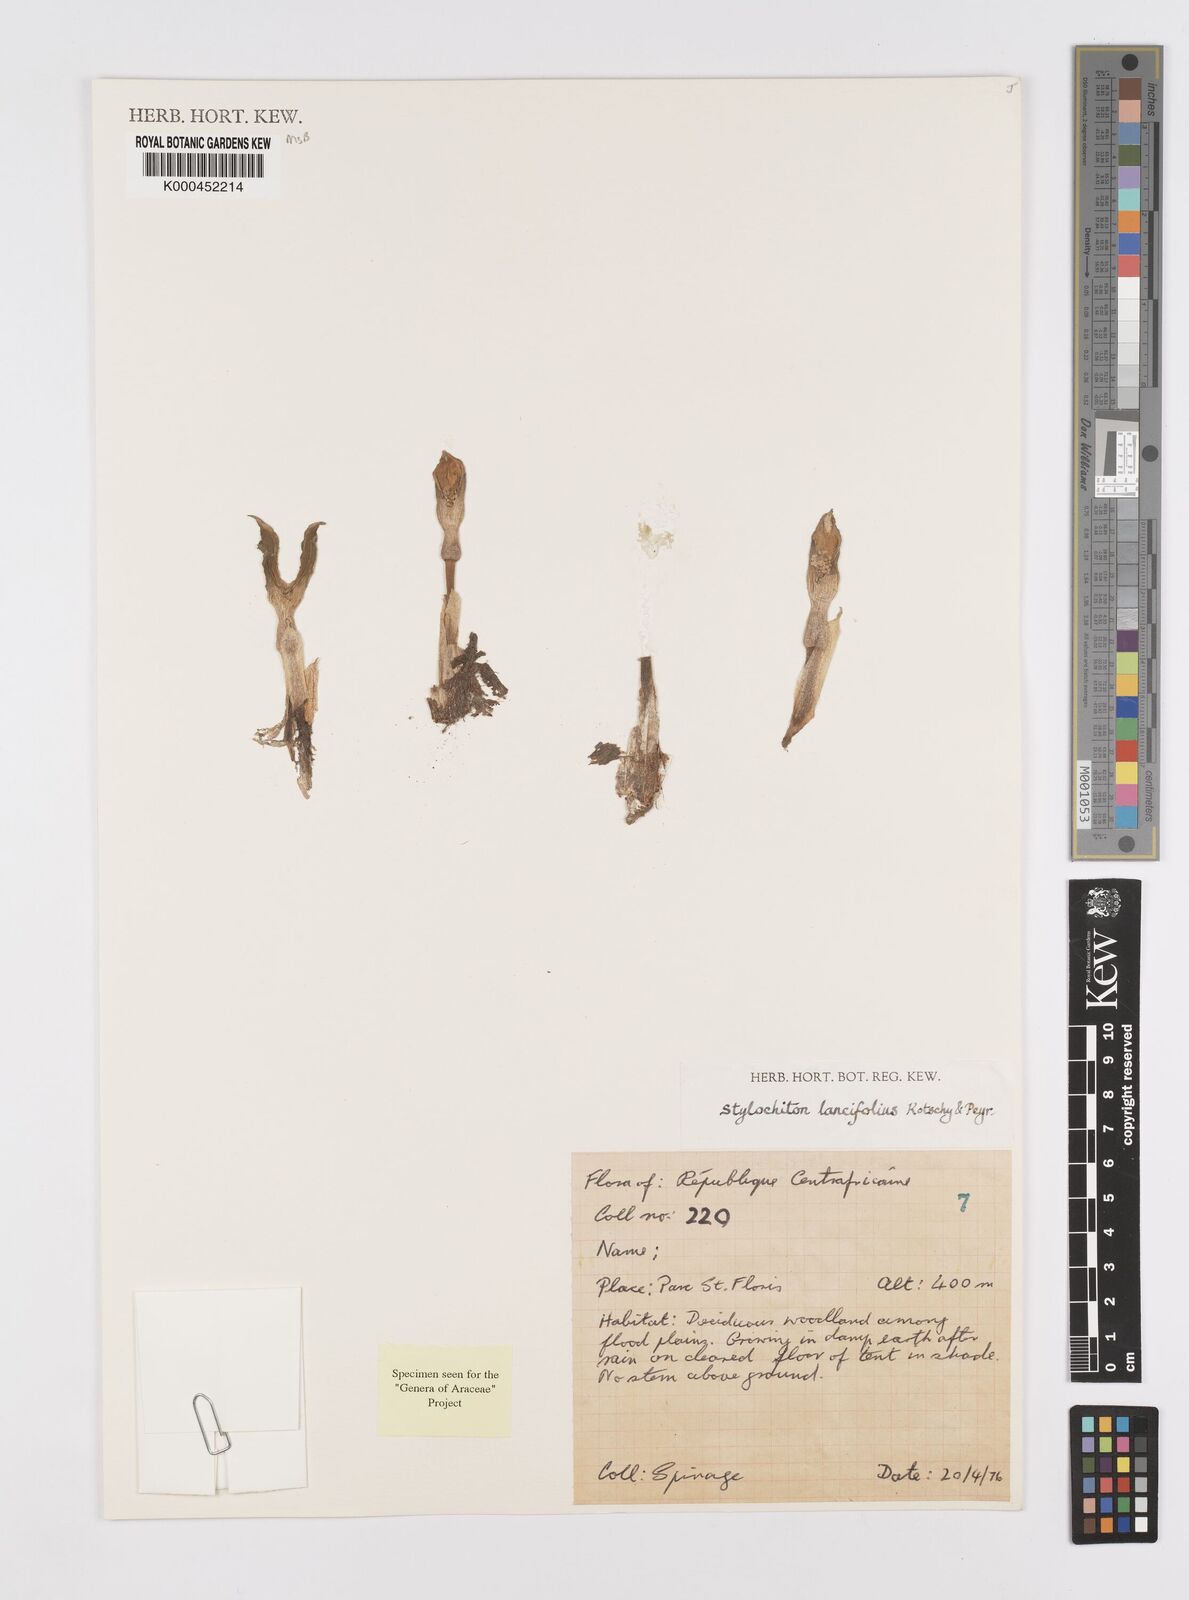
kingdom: Plantae
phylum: Tracheophyta
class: Liliopsida
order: Alismatales
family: Araceae
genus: Stylochaeton
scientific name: Stylochaeton lancifolium
